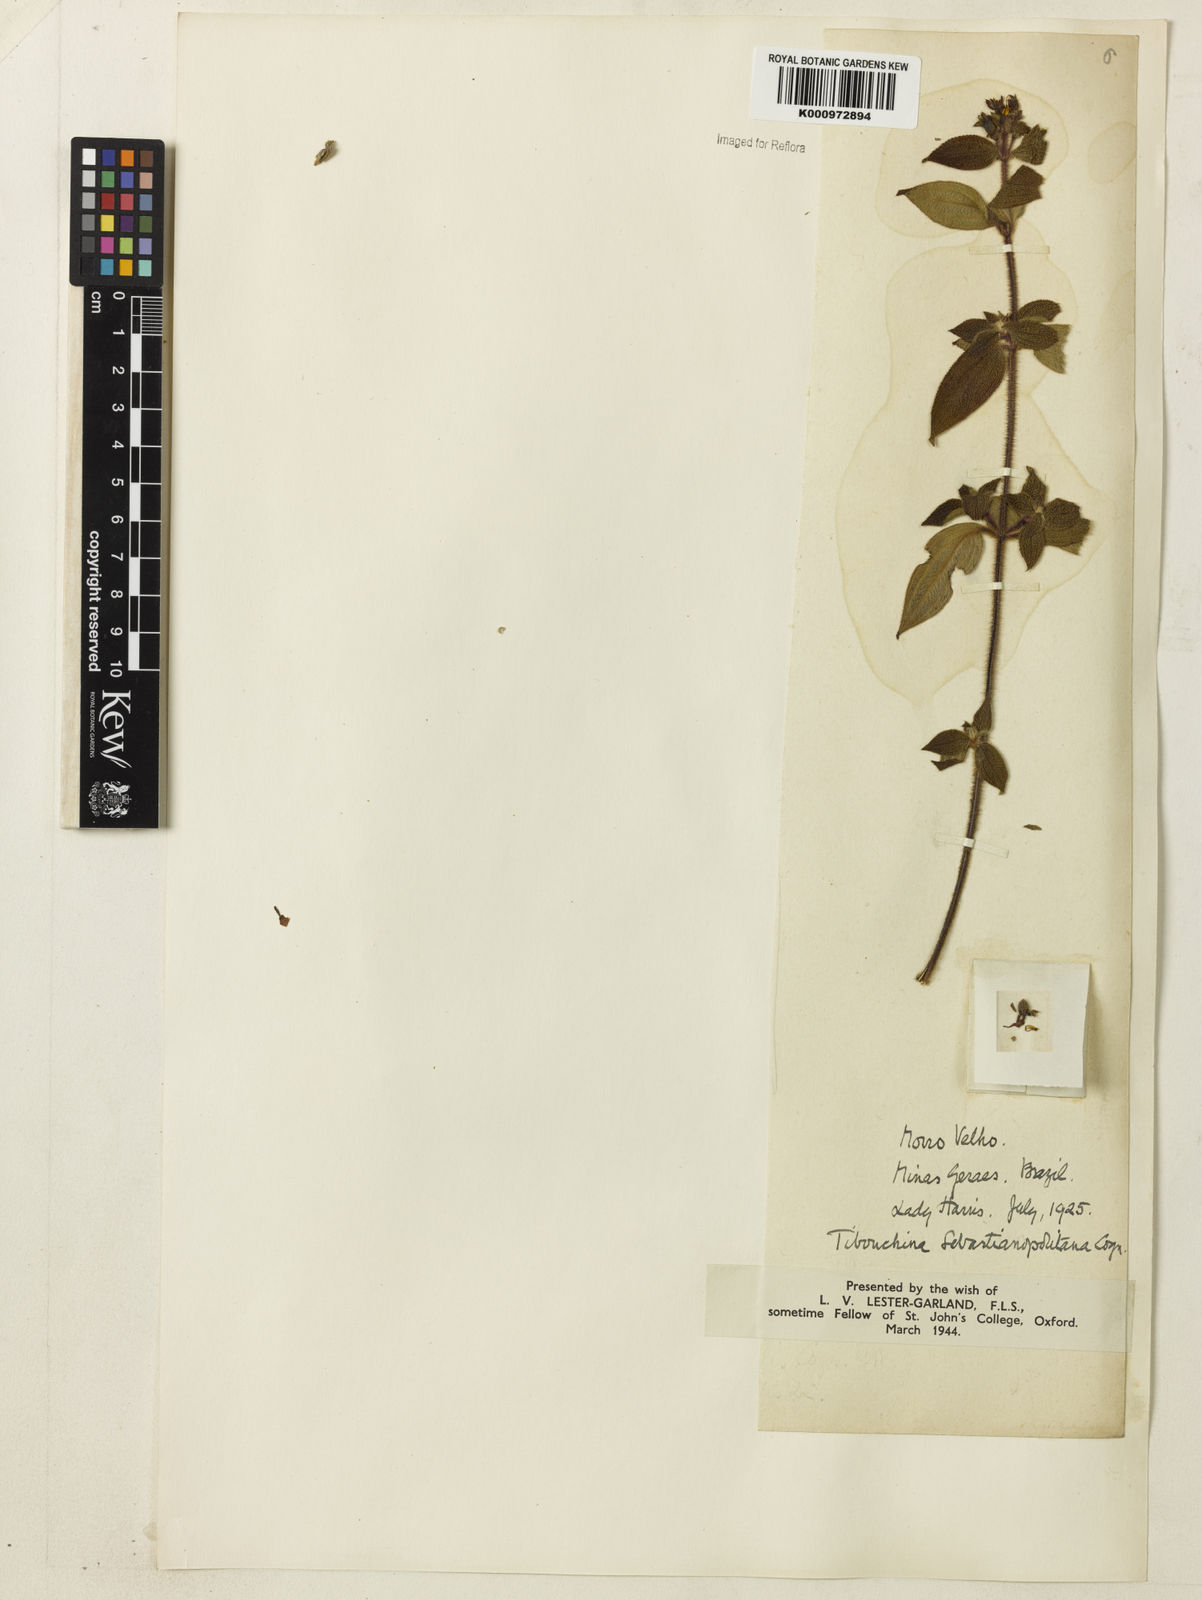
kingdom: Plantae
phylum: Tracheophyta
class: Magnoliopsida
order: Myrtales
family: Melastomataceae
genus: Chaetogastra
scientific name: Chaetogastra sebastianopolitana
